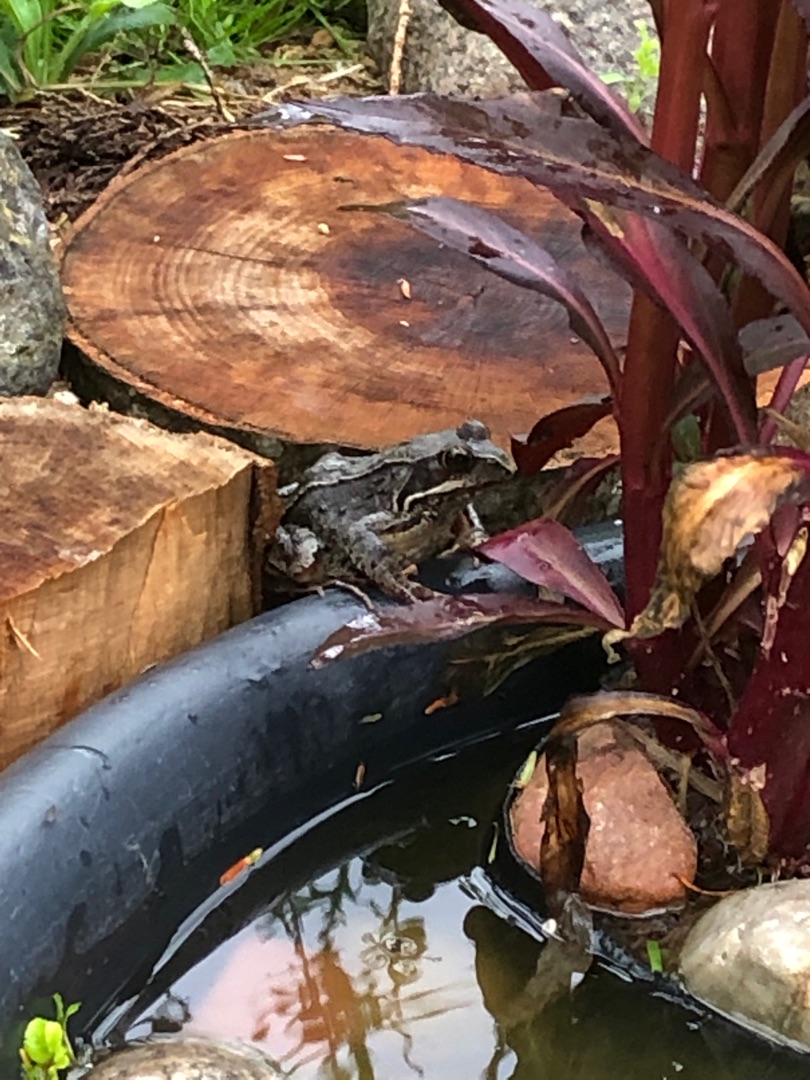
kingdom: Animalia
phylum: Chordata
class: Amphibia
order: Anura
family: Ranidae
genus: Rana
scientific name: Rana temporaria
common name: Butsnudet frø
